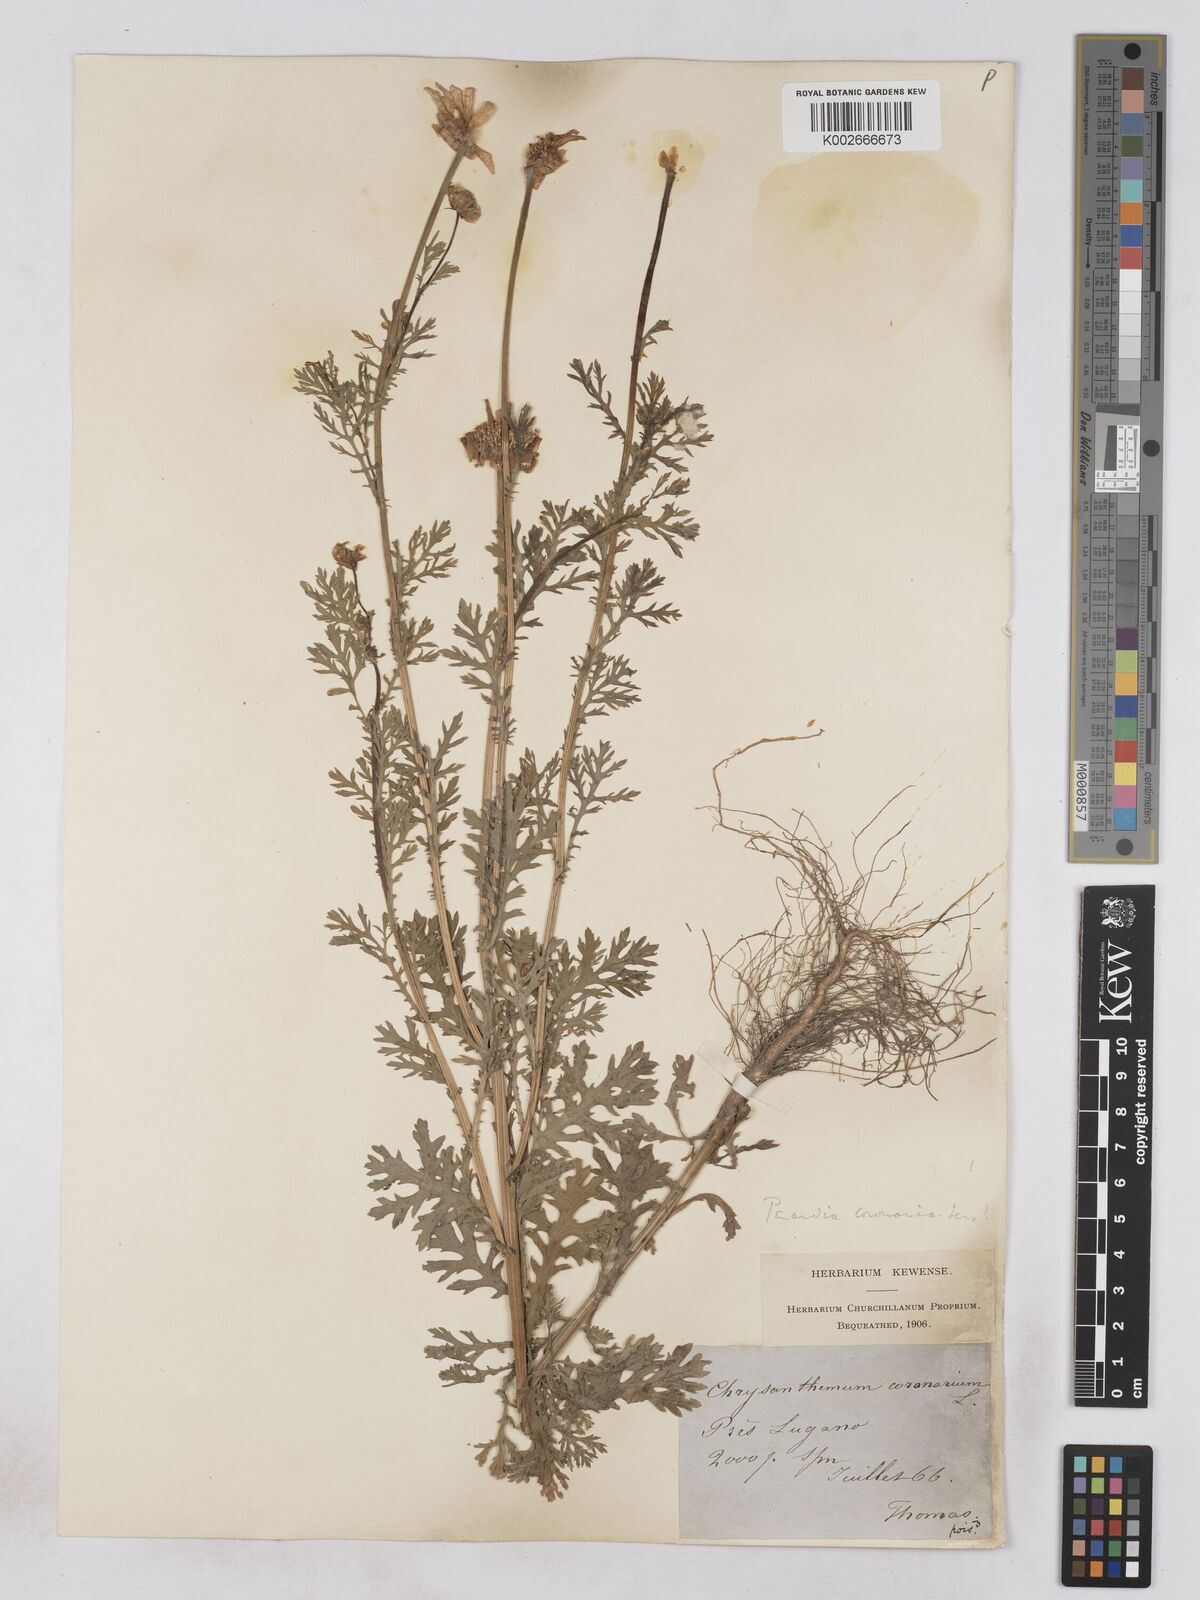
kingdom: Plantae
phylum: Tracheophyta
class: Magnoliopsida
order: Asterales
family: Asteraceae
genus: Glebionis
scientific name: Glebionis coronaria
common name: Crowndaisy
